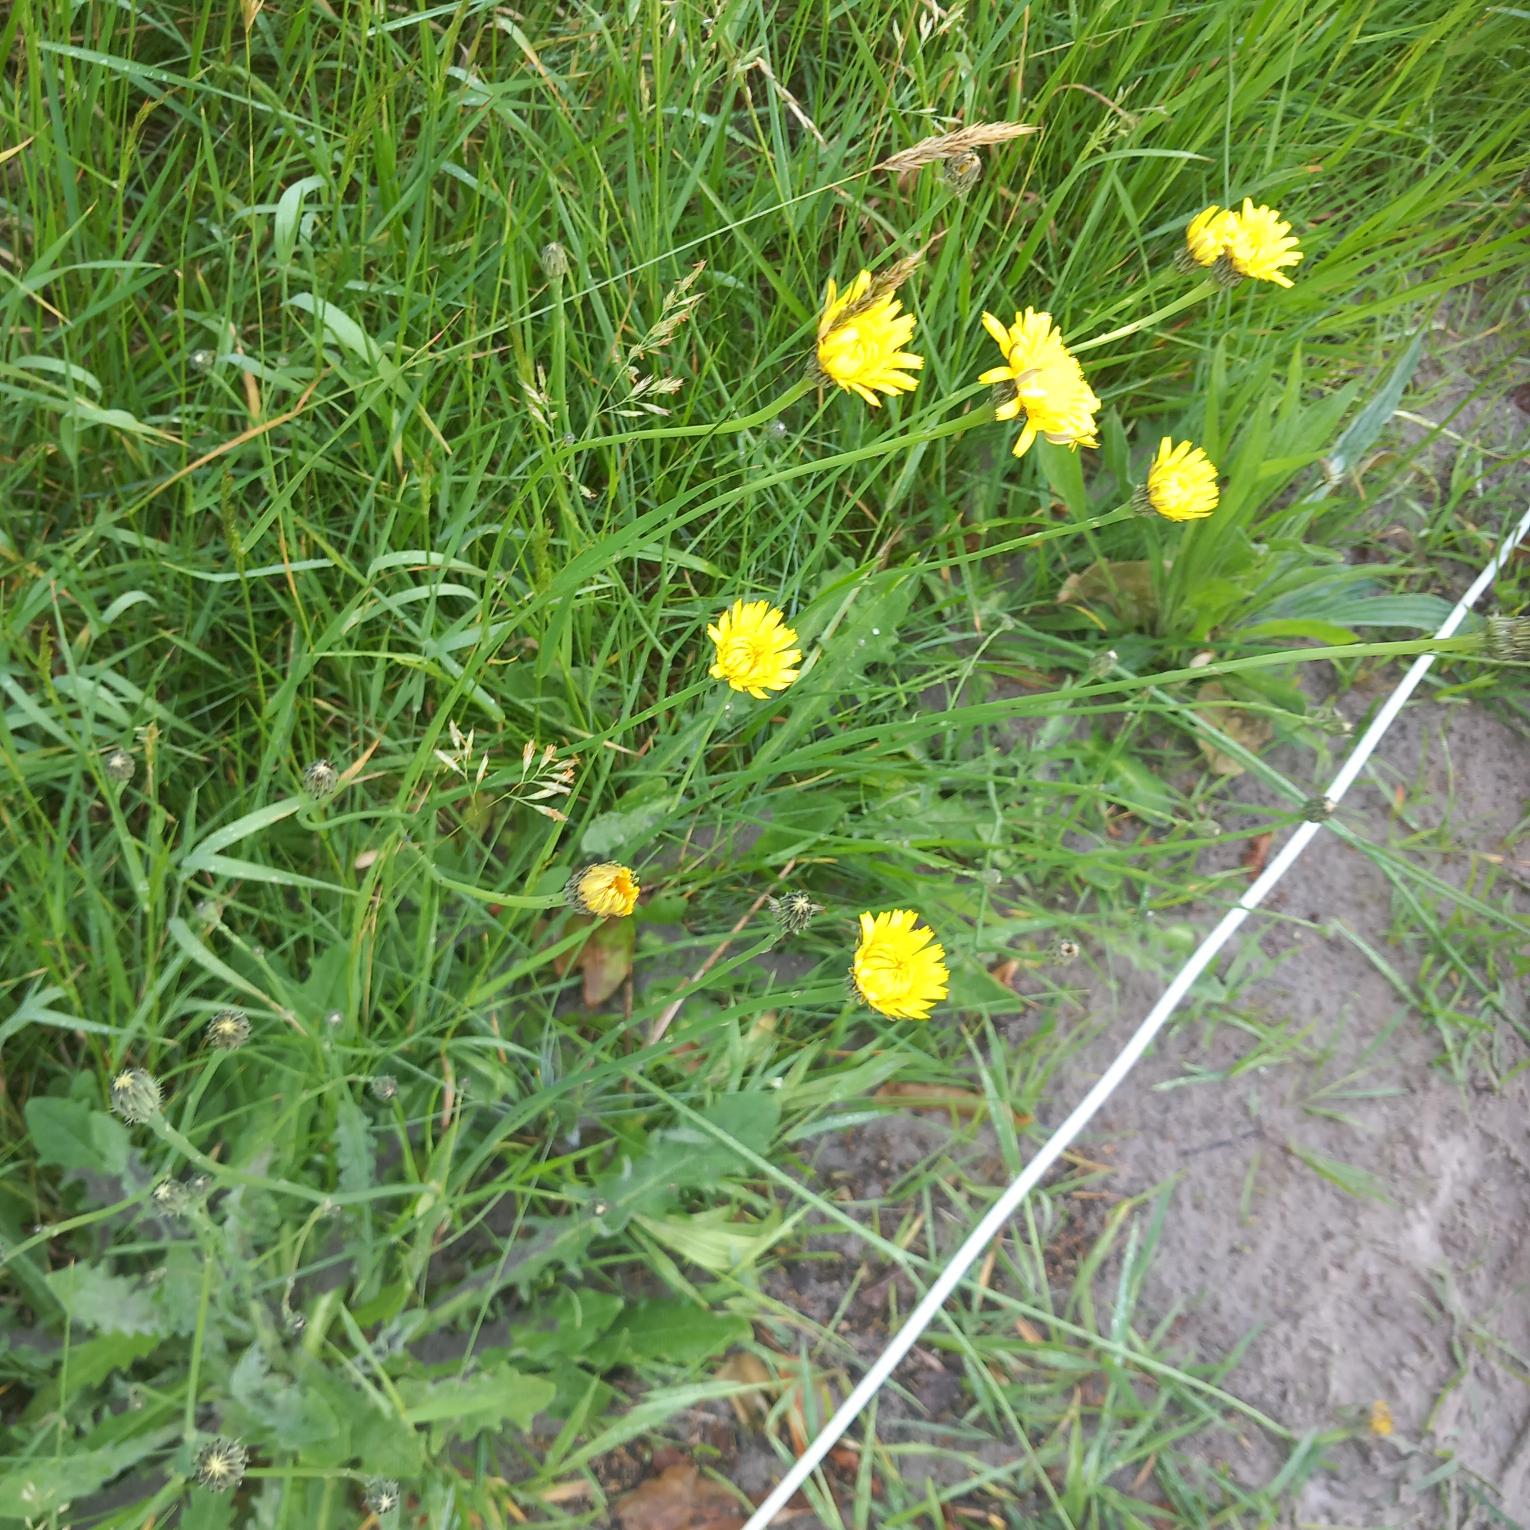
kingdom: Plantae
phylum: Tracheophyta
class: Magnoliopsida
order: Asterales
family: Asteraceae
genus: Hypochaeris
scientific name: Hypochaeris radicata
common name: Almindelig kongepen
